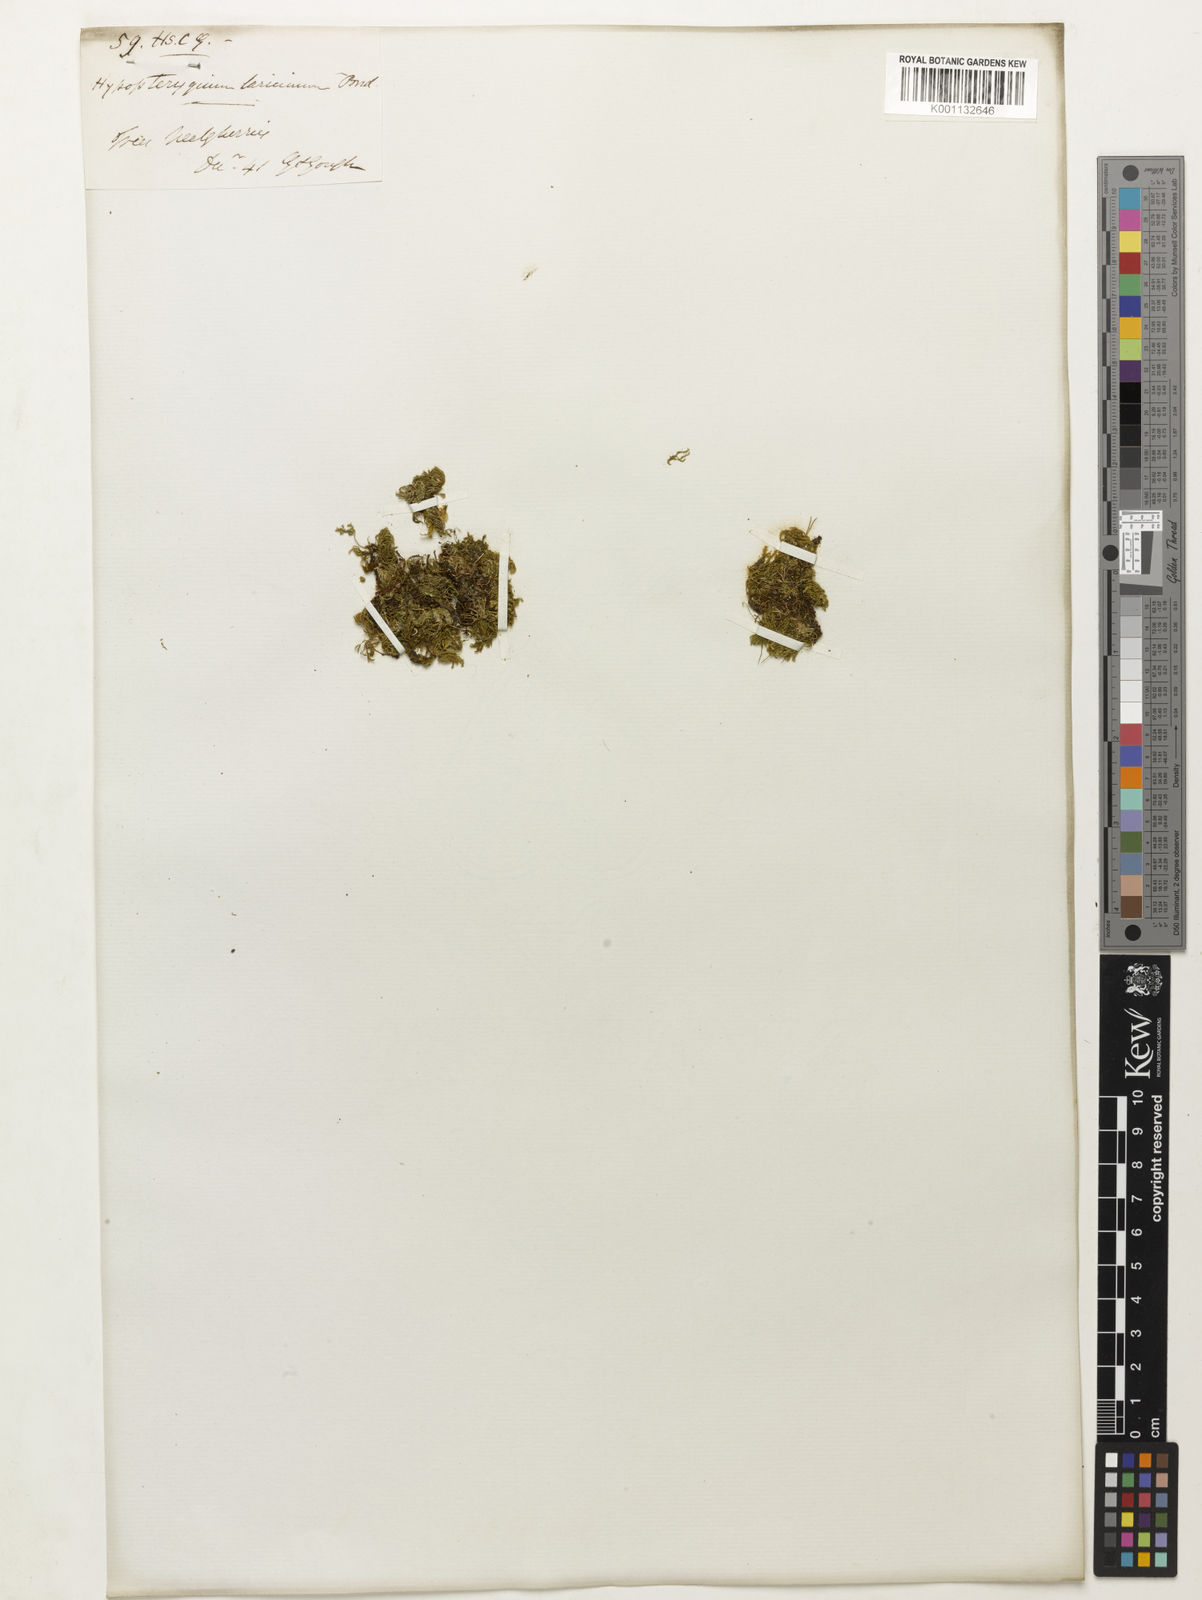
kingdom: Plantae
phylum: Tracheophyta
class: Magnoliopsida
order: Sapindales
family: Anacardiaceae
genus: Amphipterygium
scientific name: Amphipterygium
